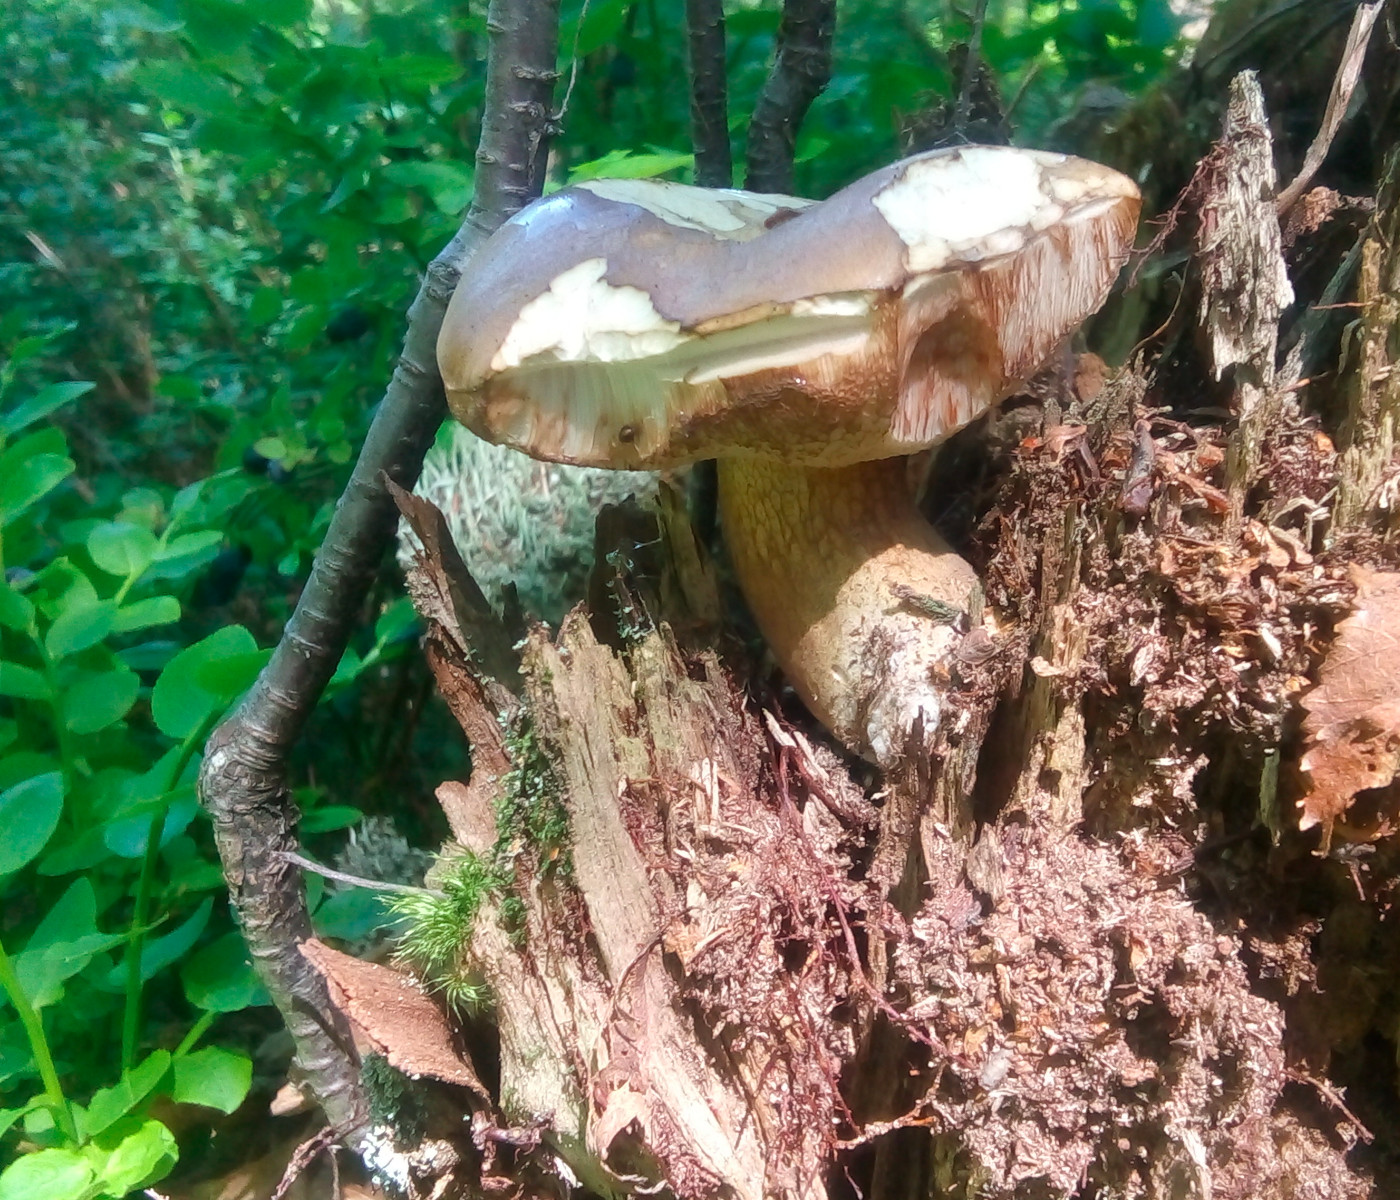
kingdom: Fungi
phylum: Basidiomycota
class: Agaricomycetes
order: Boletales
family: Boletaceae
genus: Tylopilus
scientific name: Tylopilus felleus
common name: galderørhat
